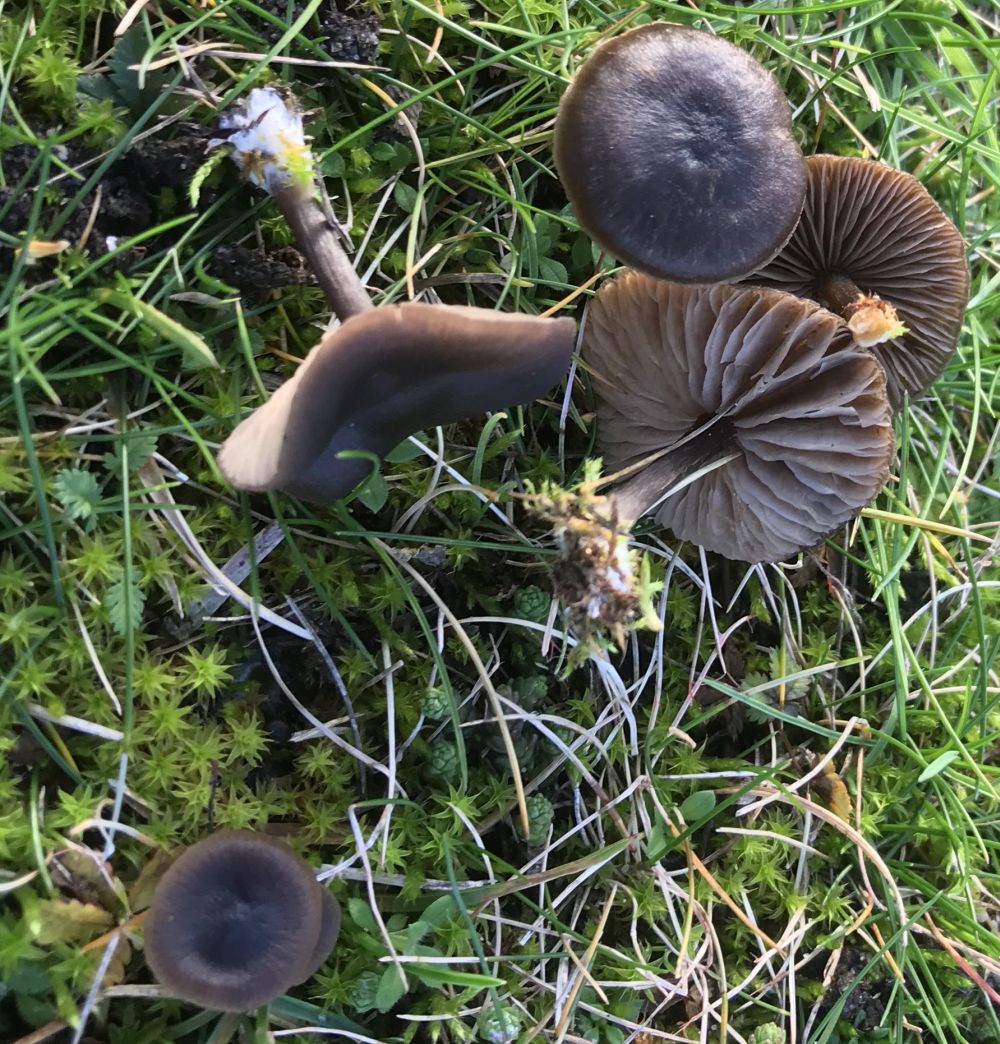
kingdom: Fungi
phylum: Basidiomycota
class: Agaricomycetes
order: Agaricales
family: Entolomataceae
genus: Entoloma
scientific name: Entoloma sericeum
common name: silkeglinsende rødblad
